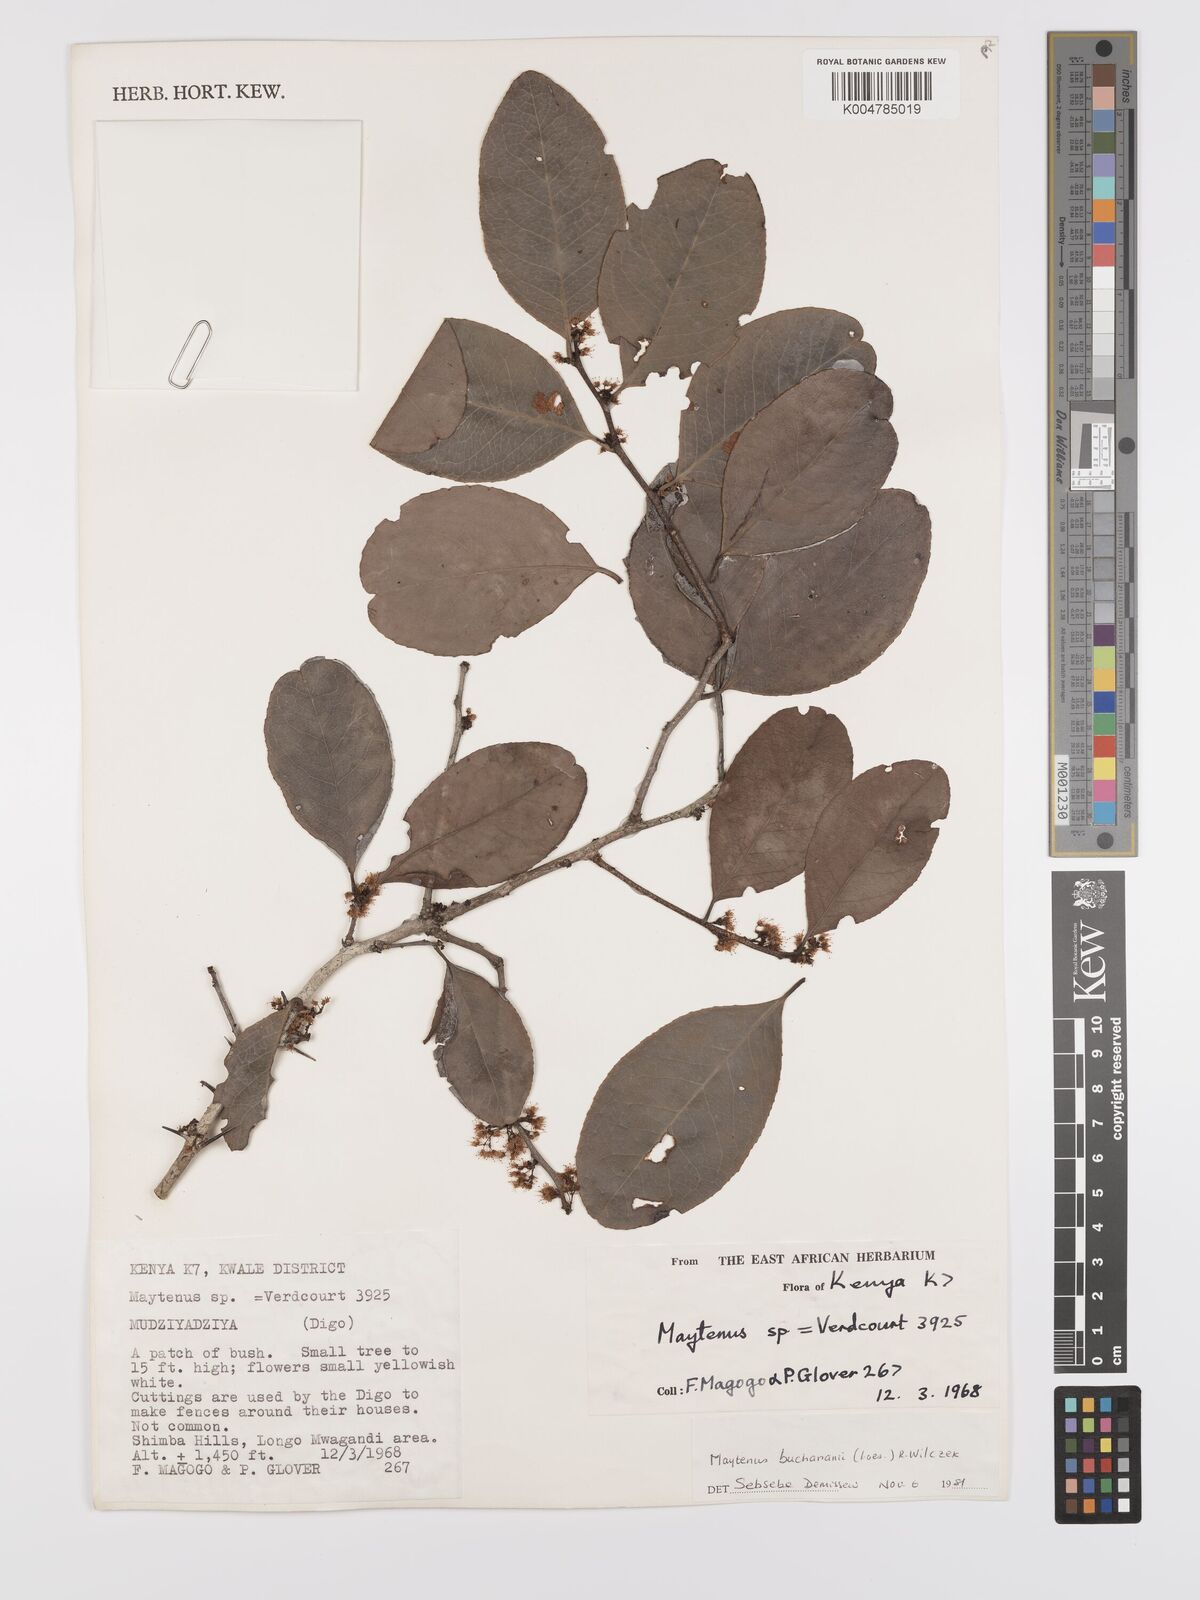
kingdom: Plantae
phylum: Tracheophyta
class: Magnoliopsida
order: Celastrales
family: Celastraceae
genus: Gymnosporia
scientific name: Gymnosporia buchananii
